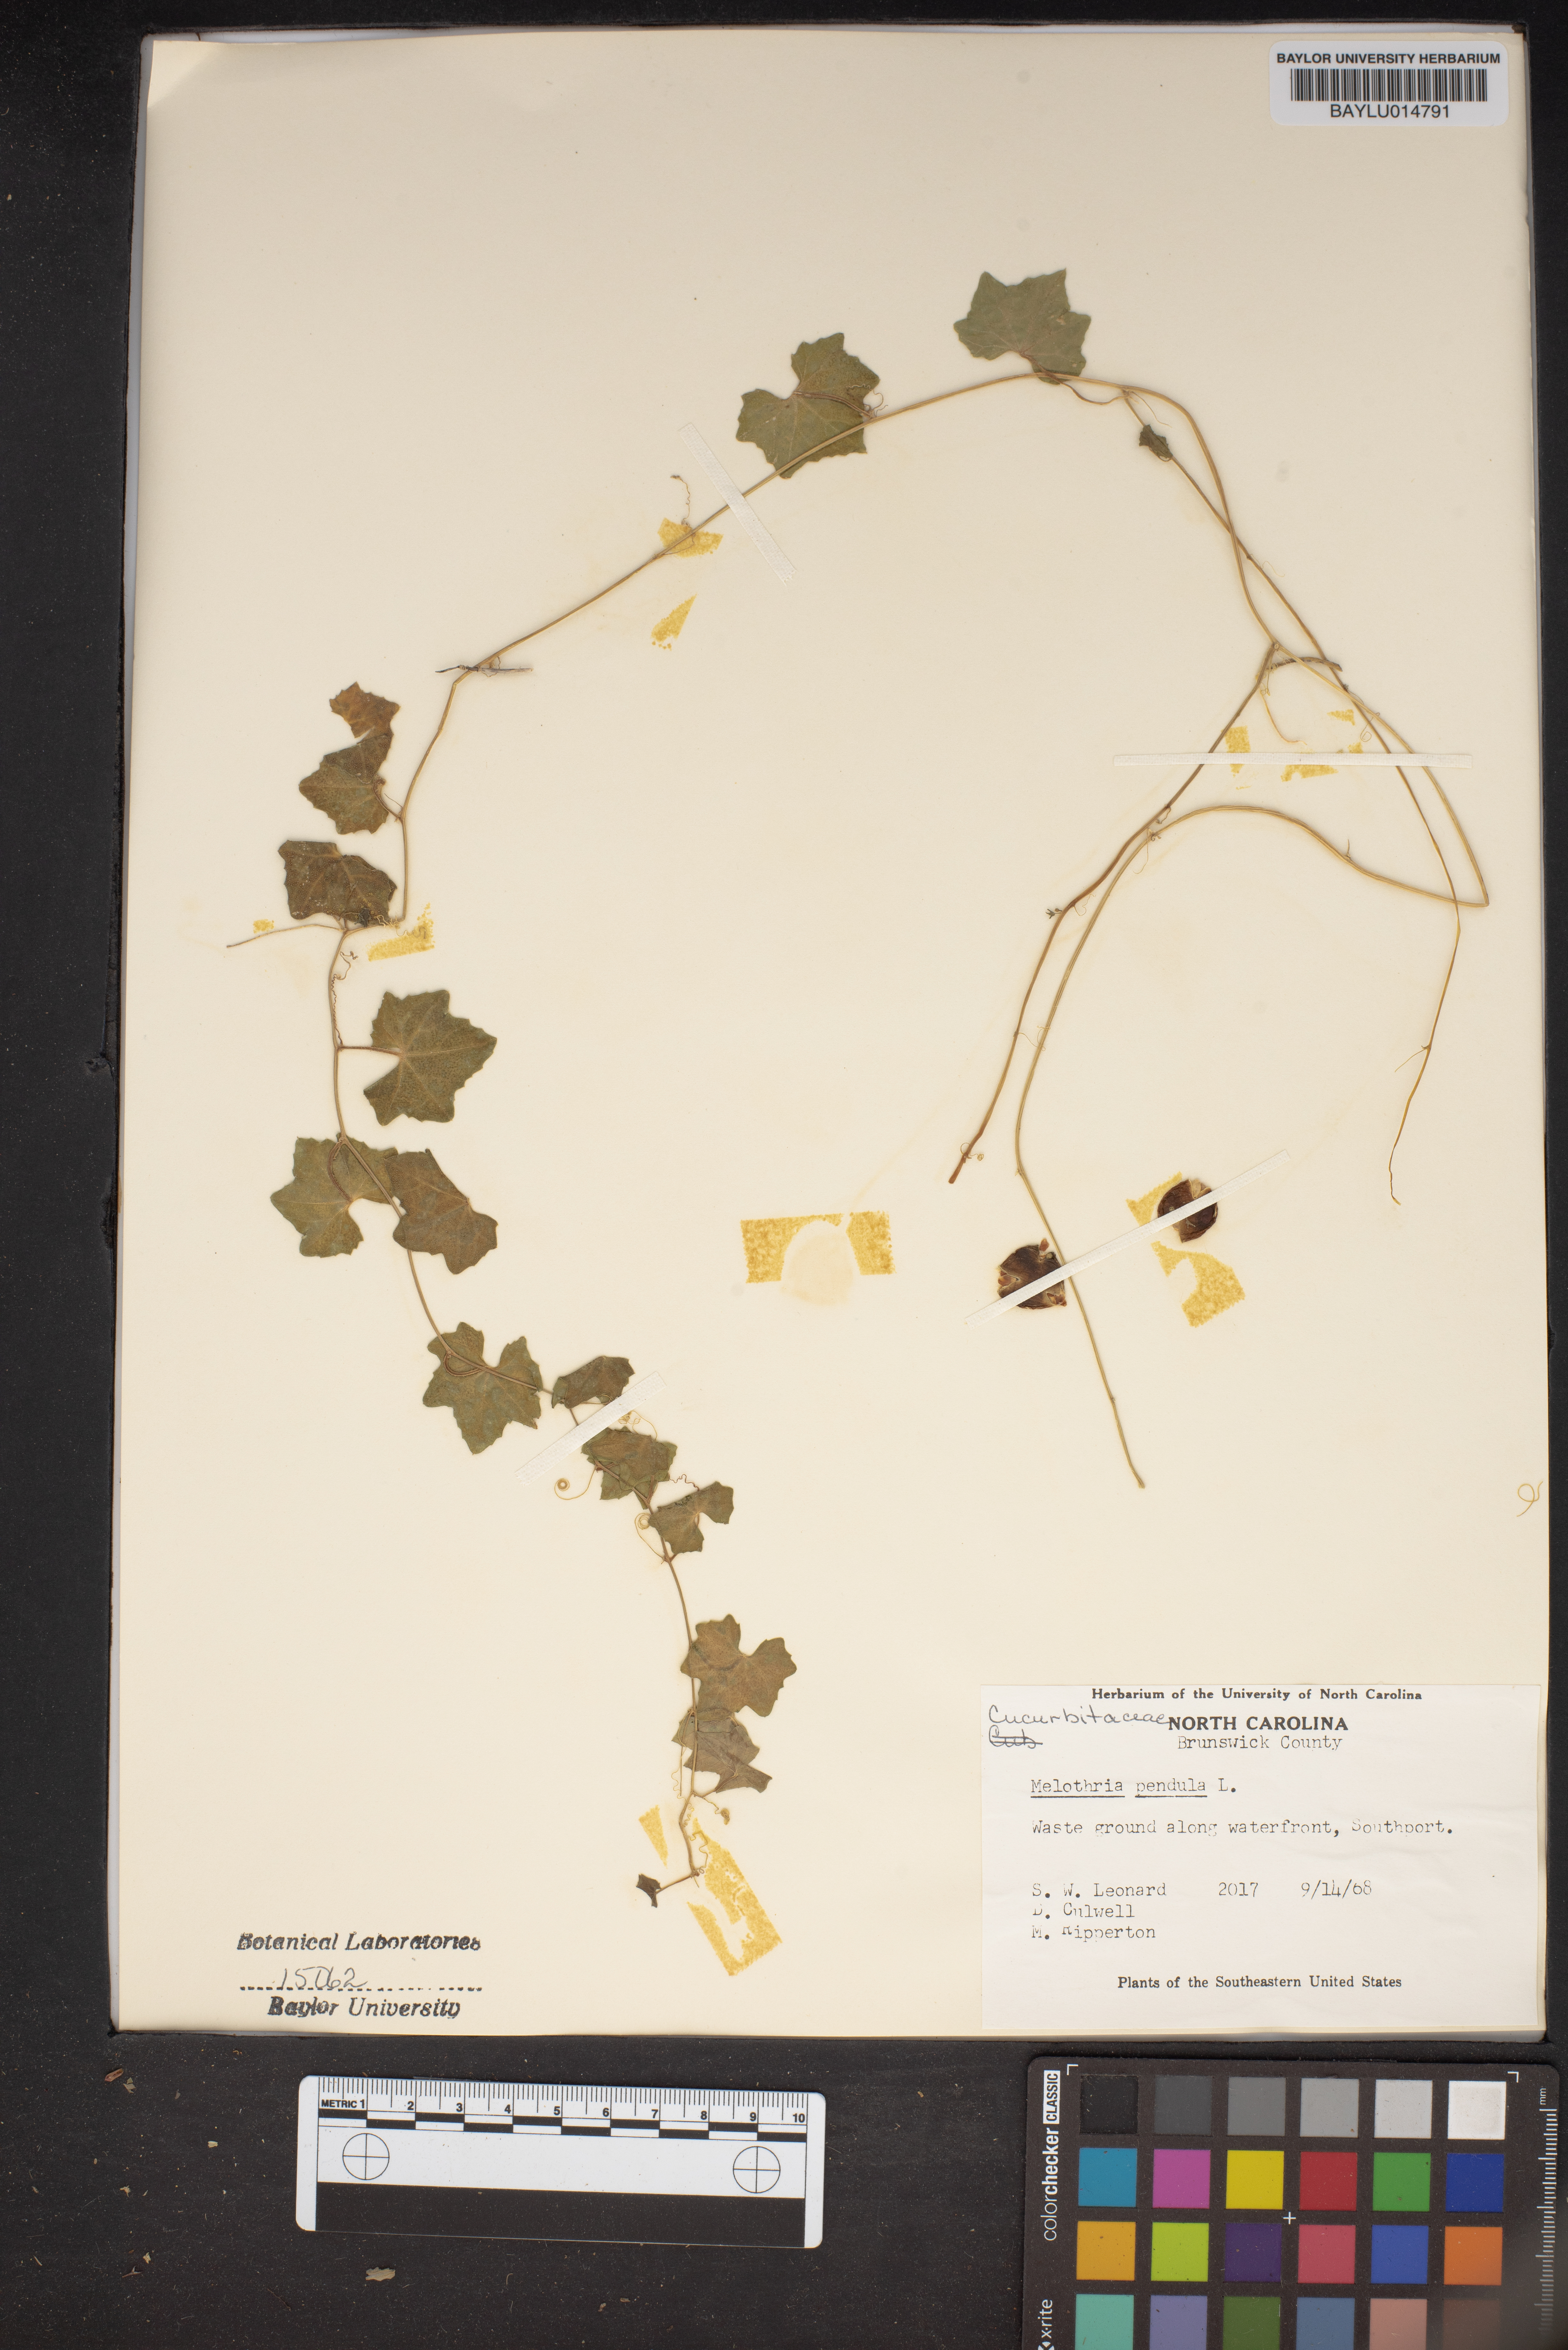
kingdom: Plantae
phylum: Tracheophyta
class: Magnoliopsida
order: Cucurbitales
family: Cucurbitaceae
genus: Melothria
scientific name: Melothria pendula
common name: Creeping-cucumber
